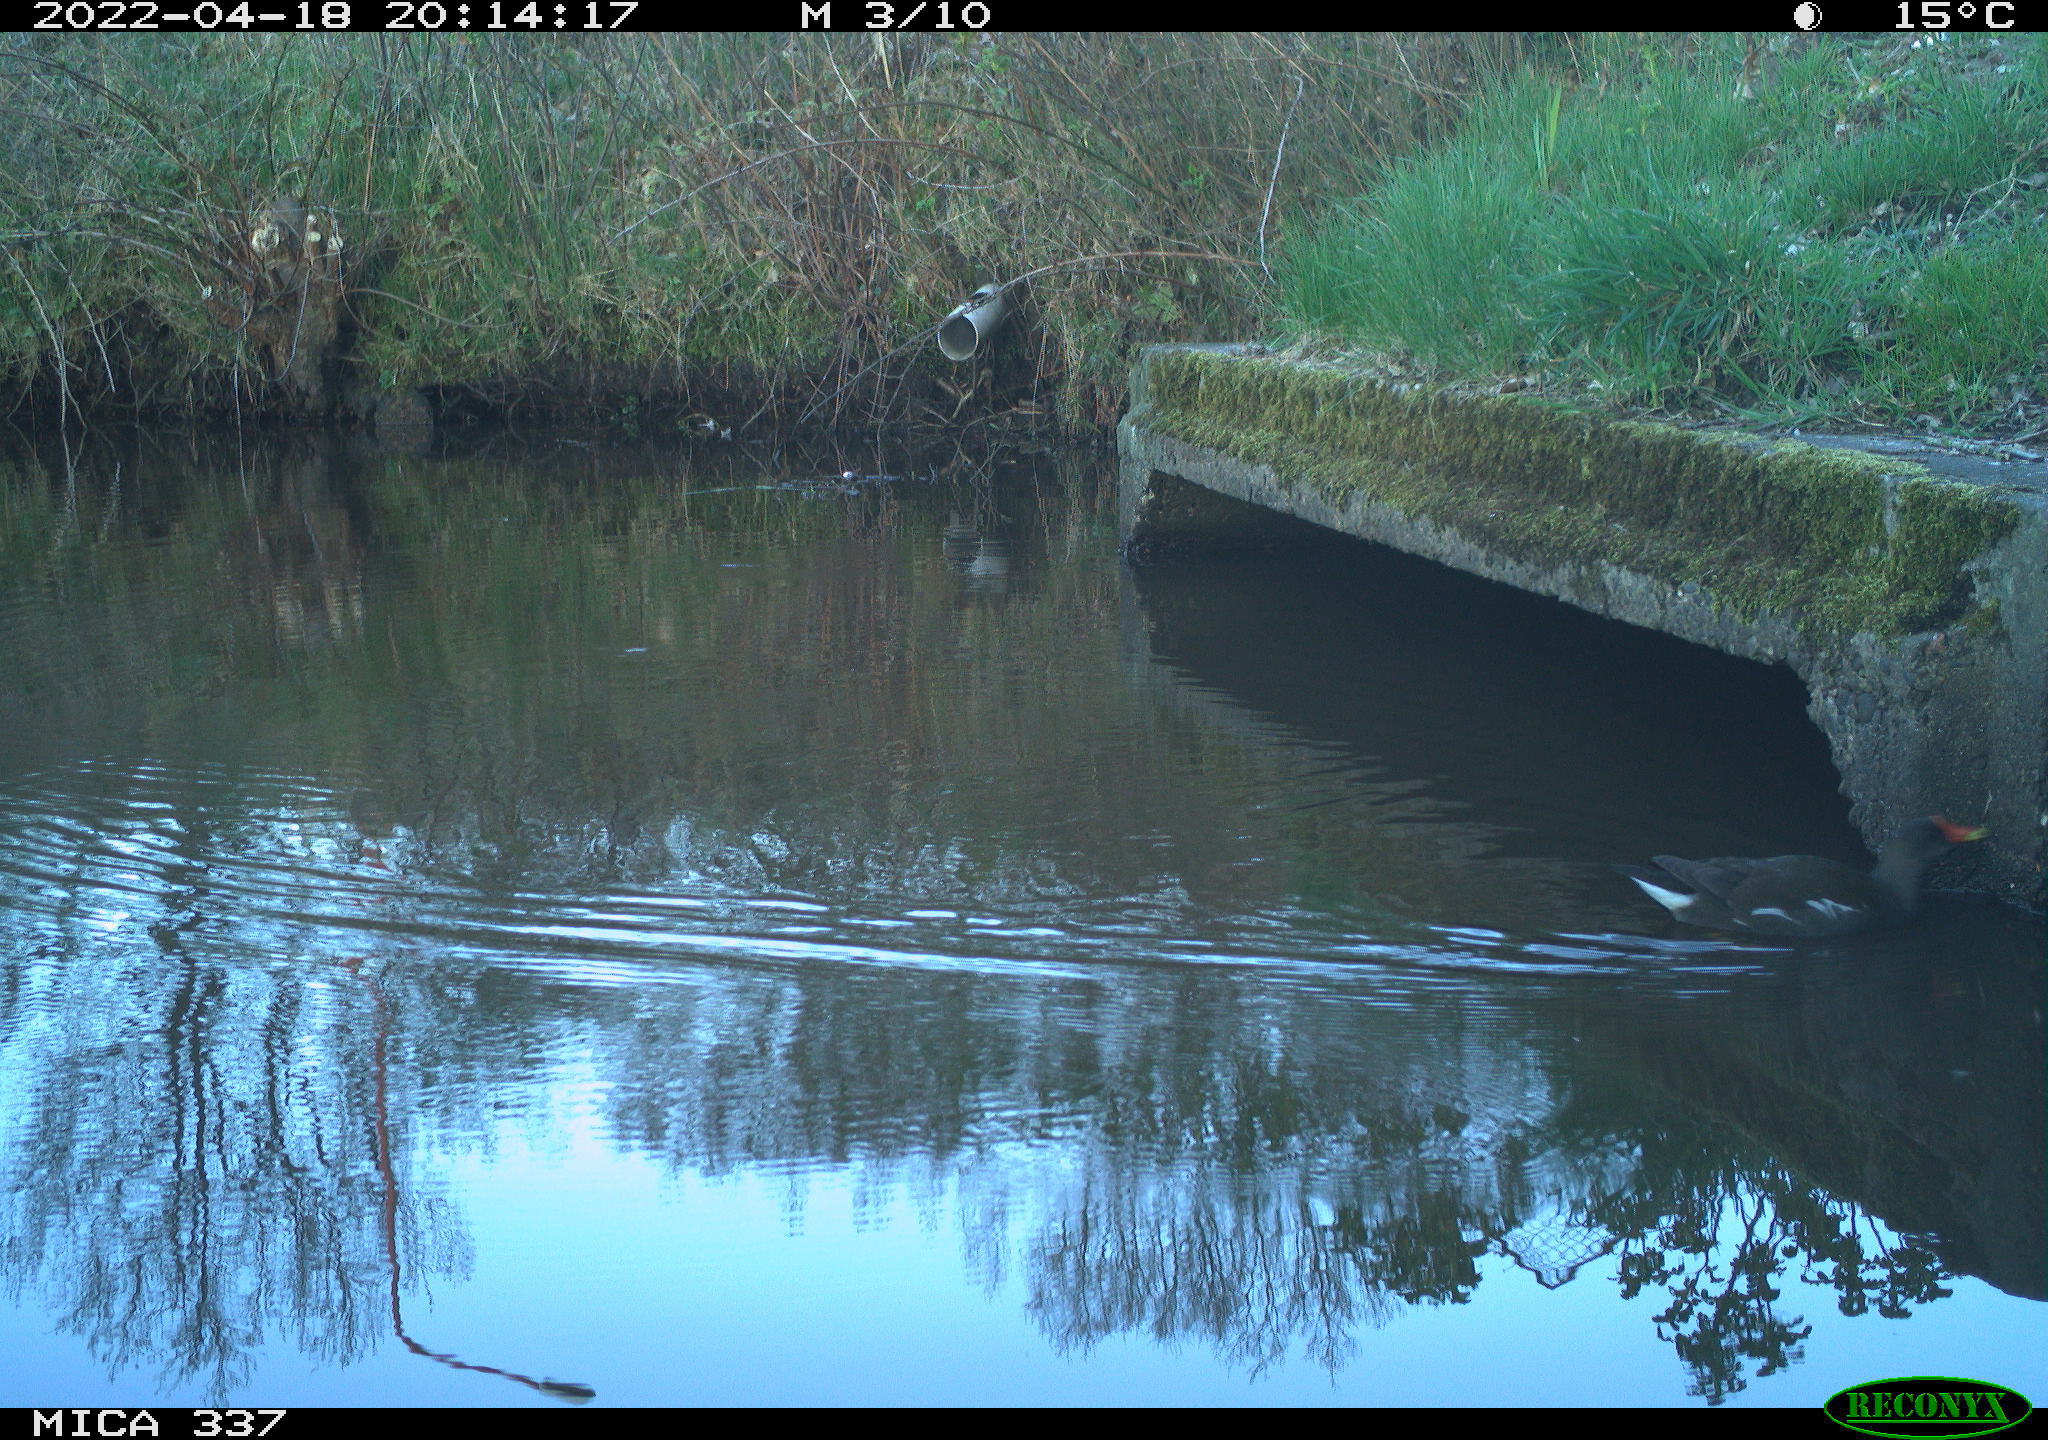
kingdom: Animalia
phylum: Chordata
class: Aves
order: Gruiformes
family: Rallidae
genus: Gallinula
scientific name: Gallinula chloropus
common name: Common moorhen
